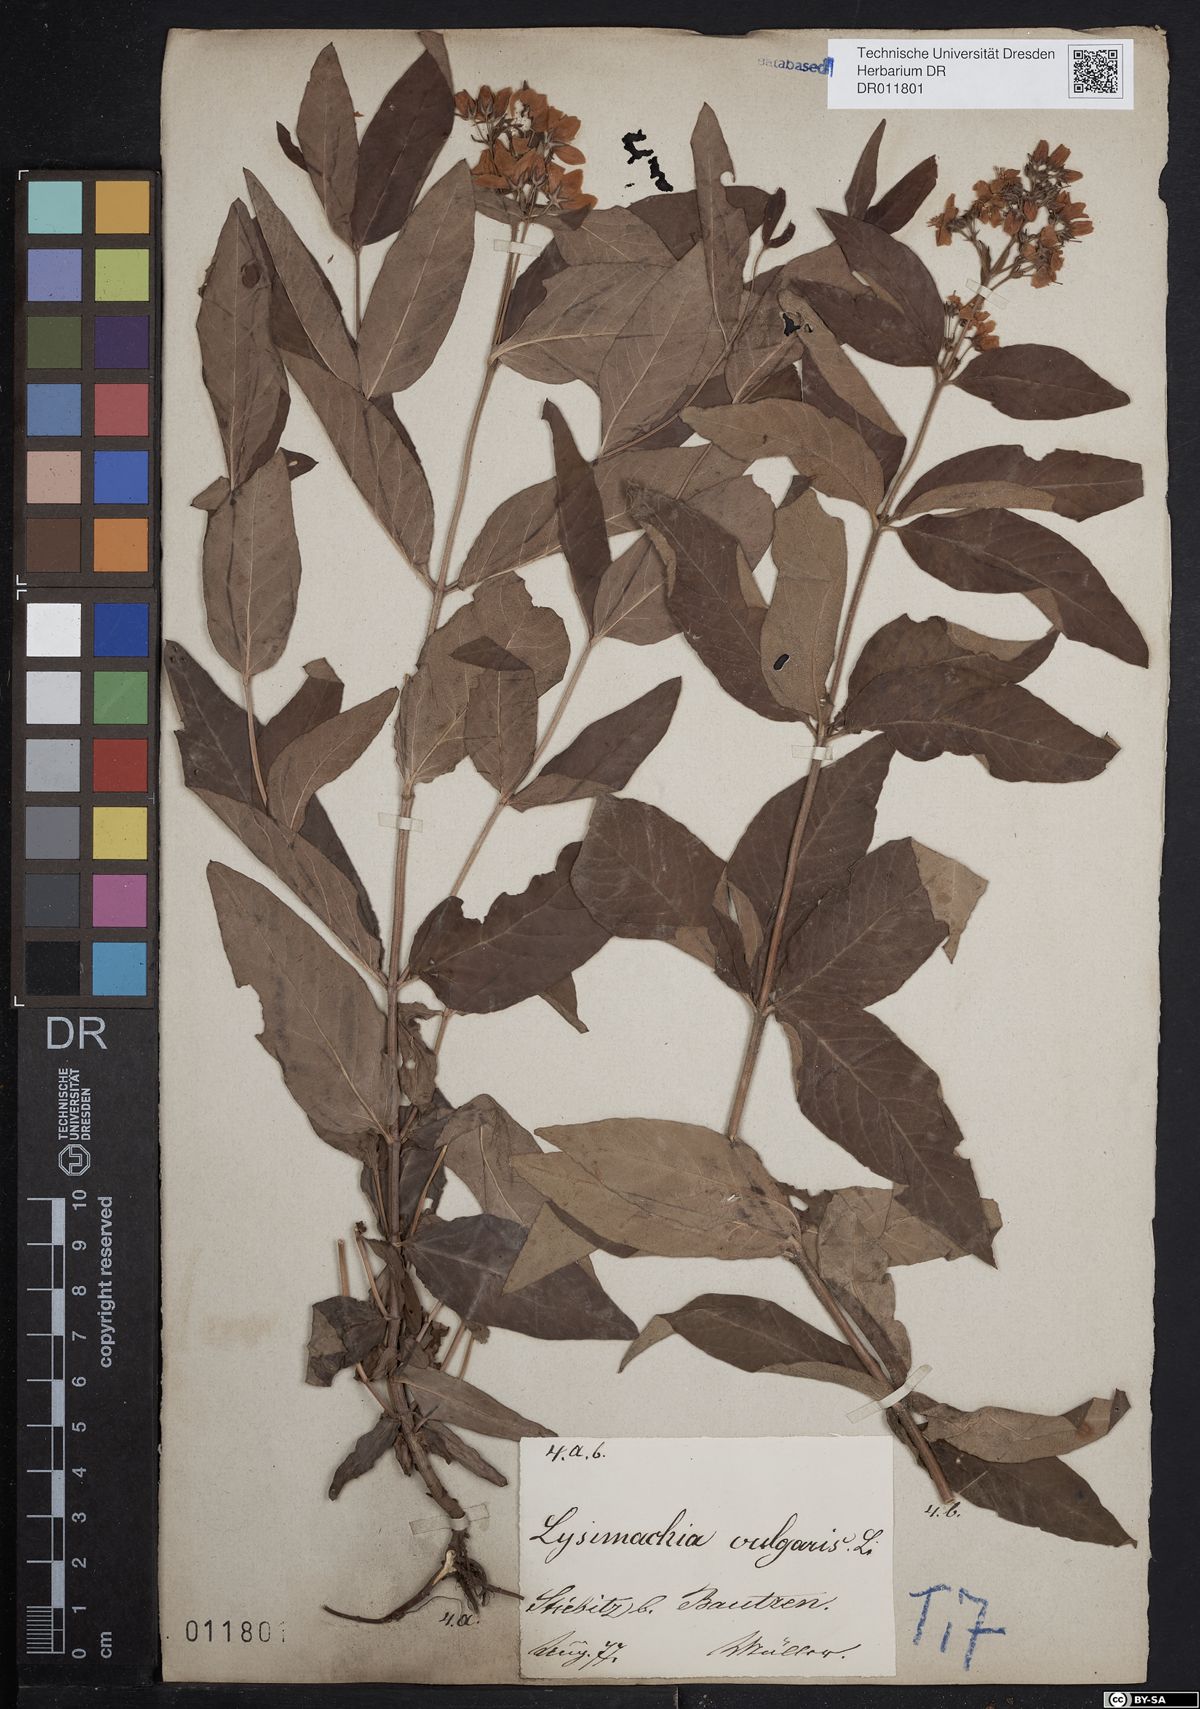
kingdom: Plantae
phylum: Tracheophyta
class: Magnoliopsida
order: Ericales
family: Primulaceae
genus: Lysimachia
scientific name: Lysimachia vulgaris
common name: Yellow loosestrife
